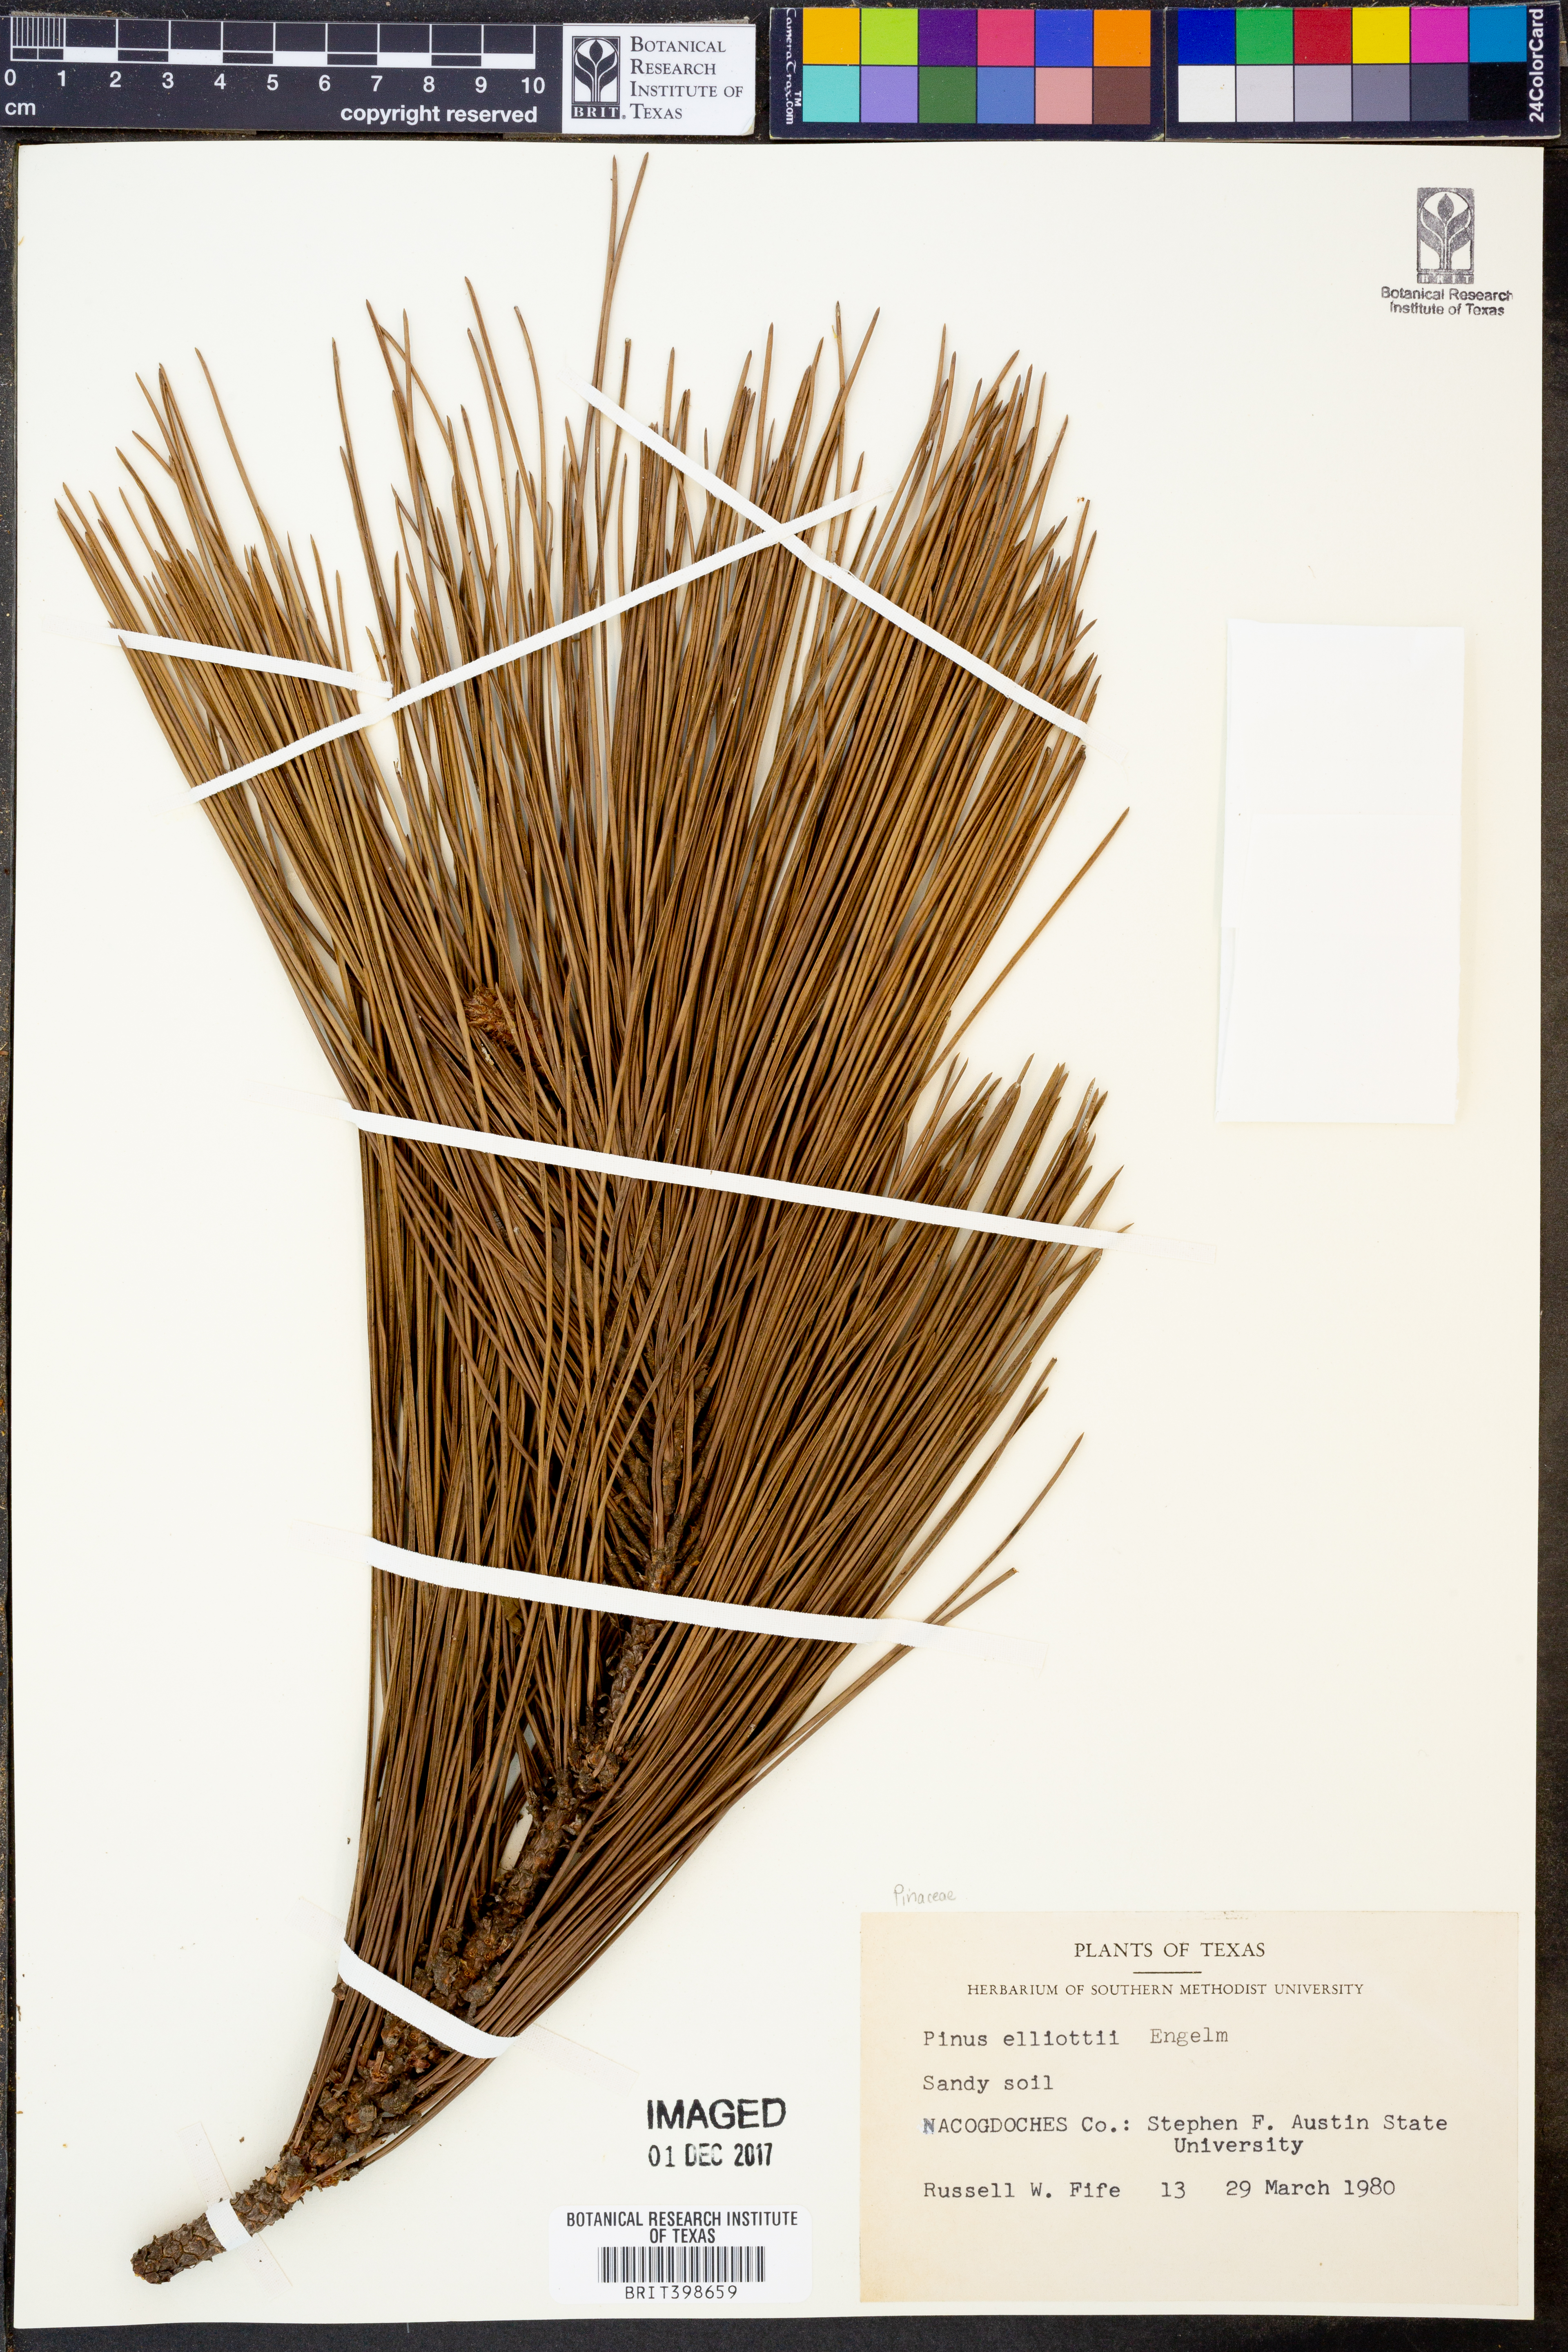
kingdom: Plantae
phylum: Tracheophyta
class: Pinopsida
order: Pinales
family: Pinaceae
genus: Pinus
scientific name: Pinus elliottii
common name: Slash pine
